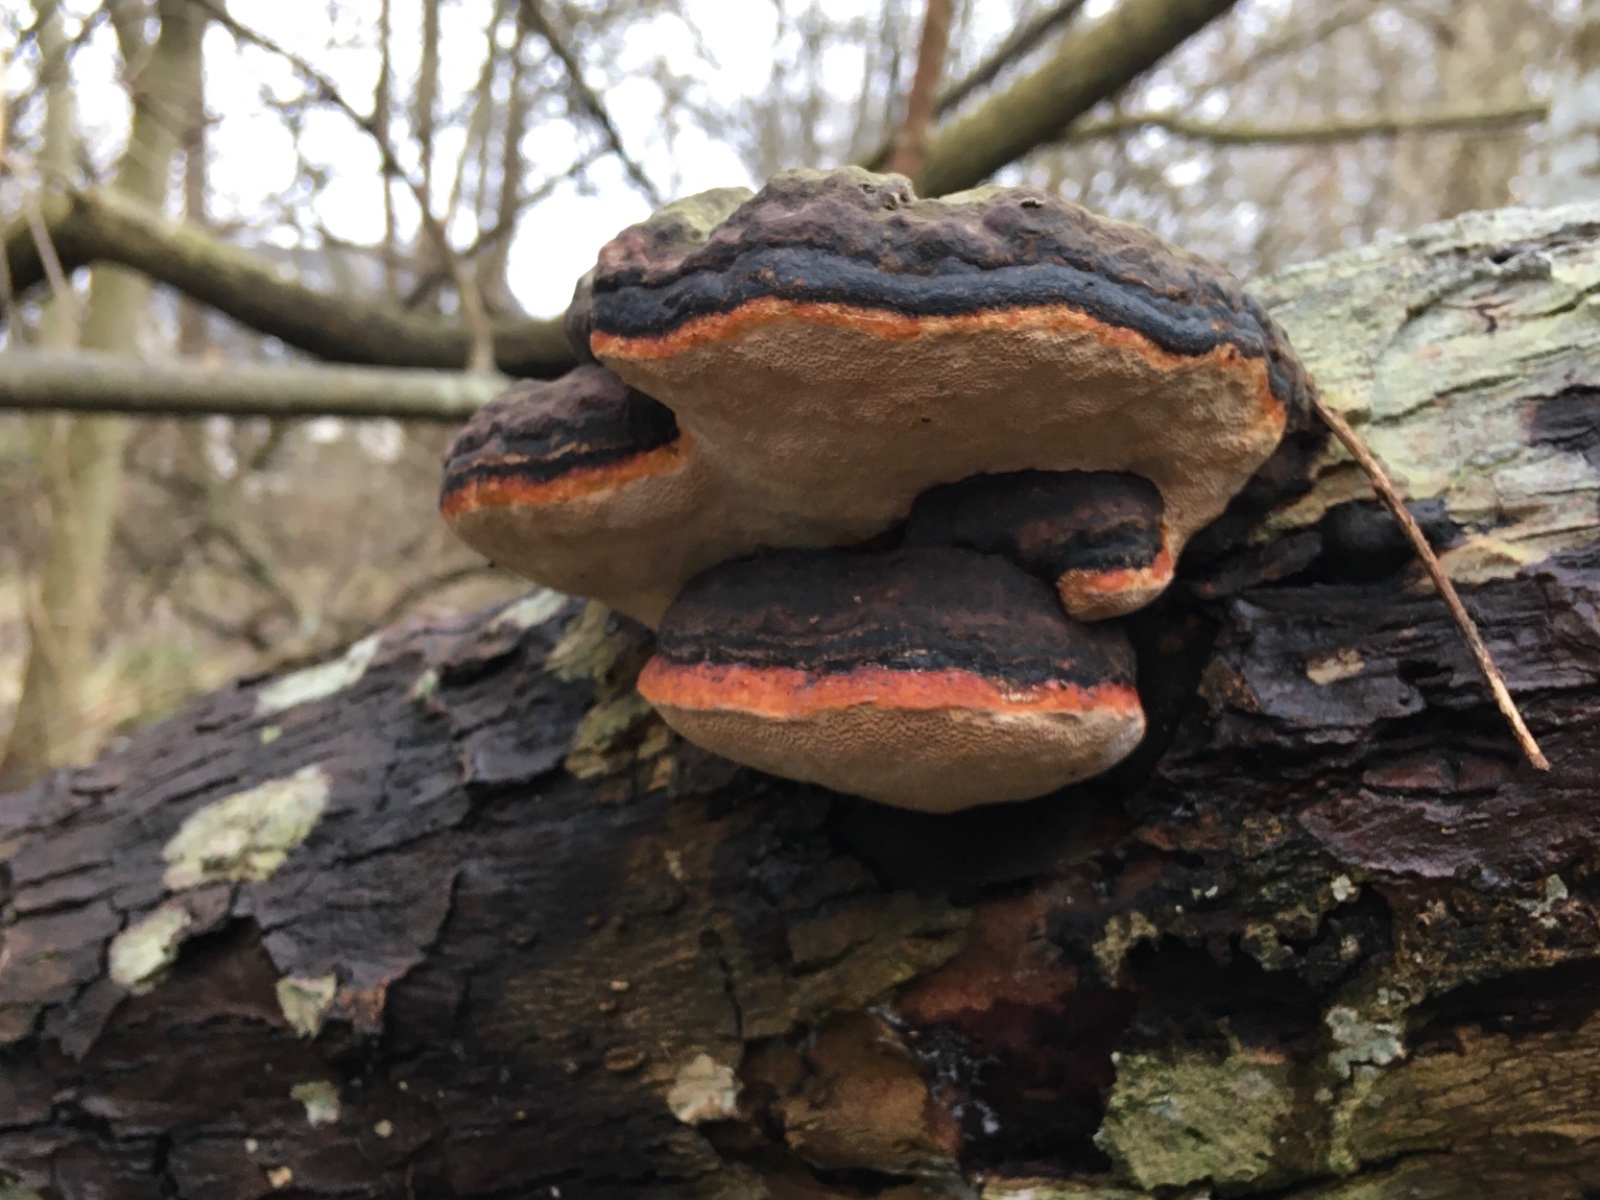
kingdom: Fungi
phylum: Basidiomycota
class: Agaricomycetes
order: Polyporales
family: Fomitopsidaceae
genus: Fomitopsis
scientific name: Fomitopsis pinicola
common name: randbæltet hovporesvamp
